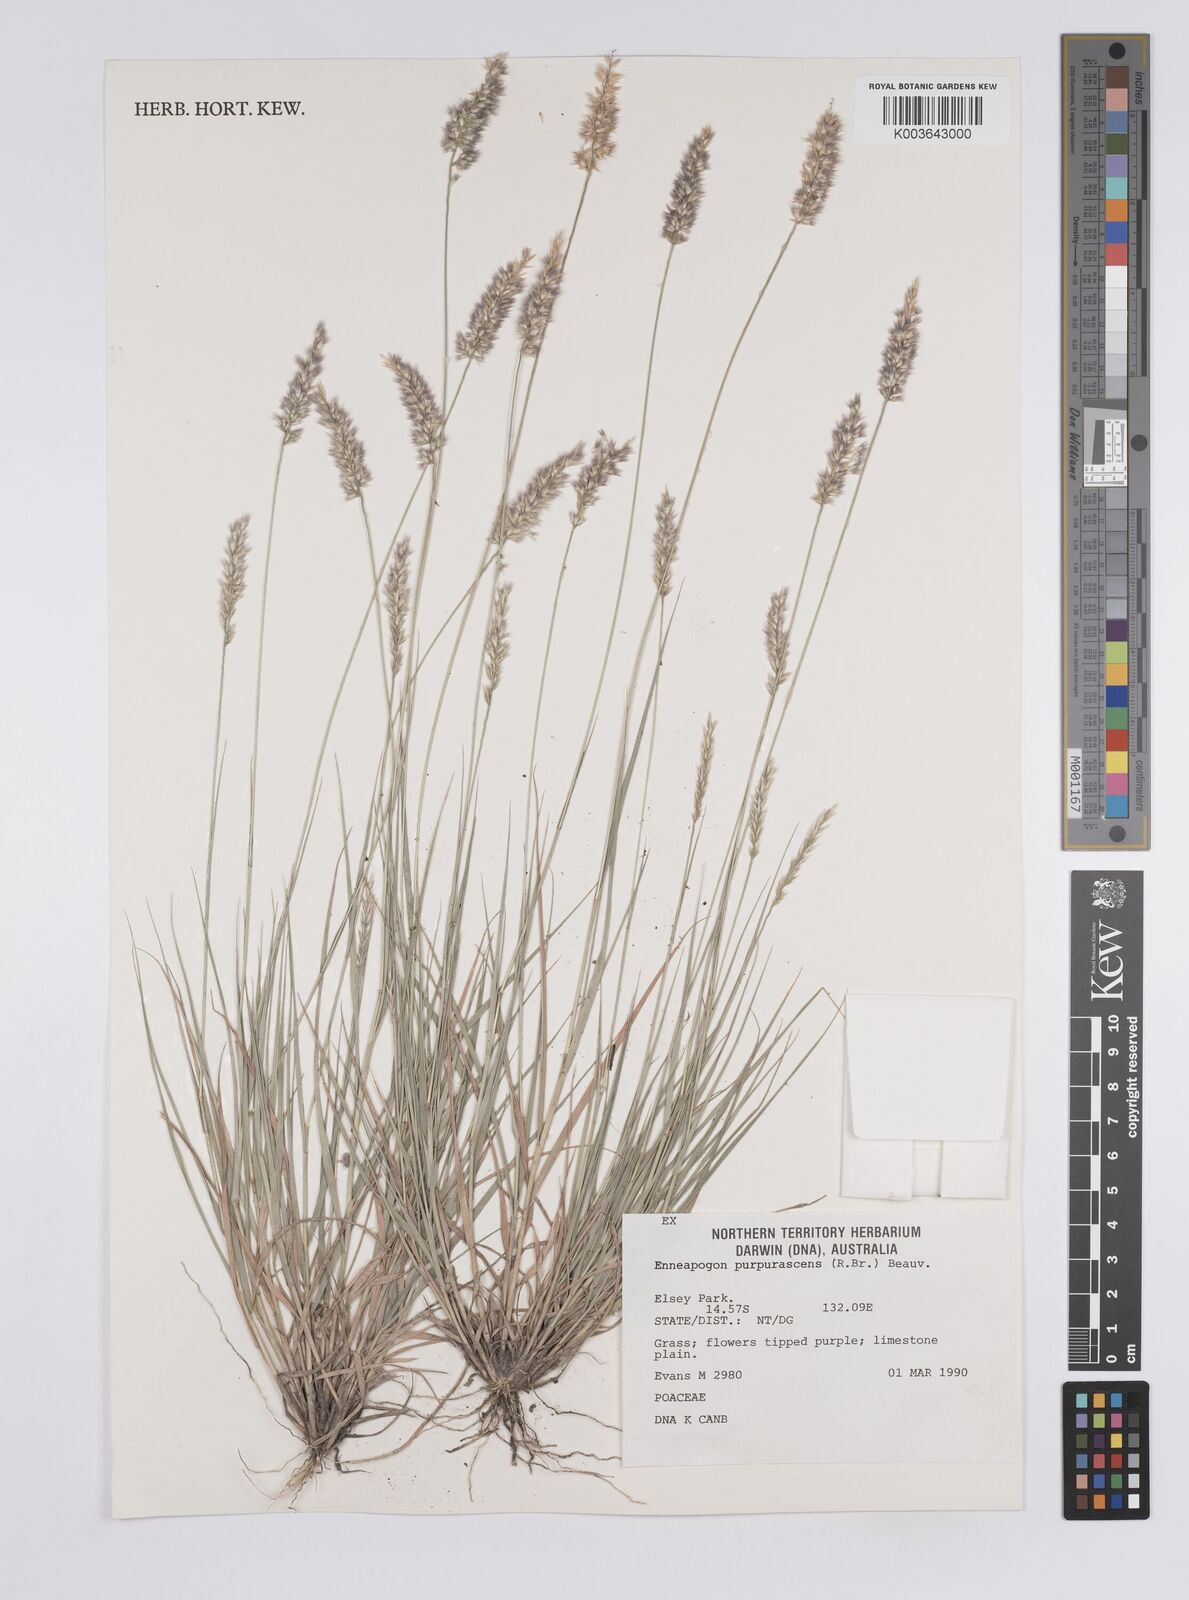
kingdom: Plantae
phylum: Tracheophyta
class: Liliopsida
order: Poales
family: Poaceae
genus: Enneapogon
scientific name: Enneapogon purpurascens
